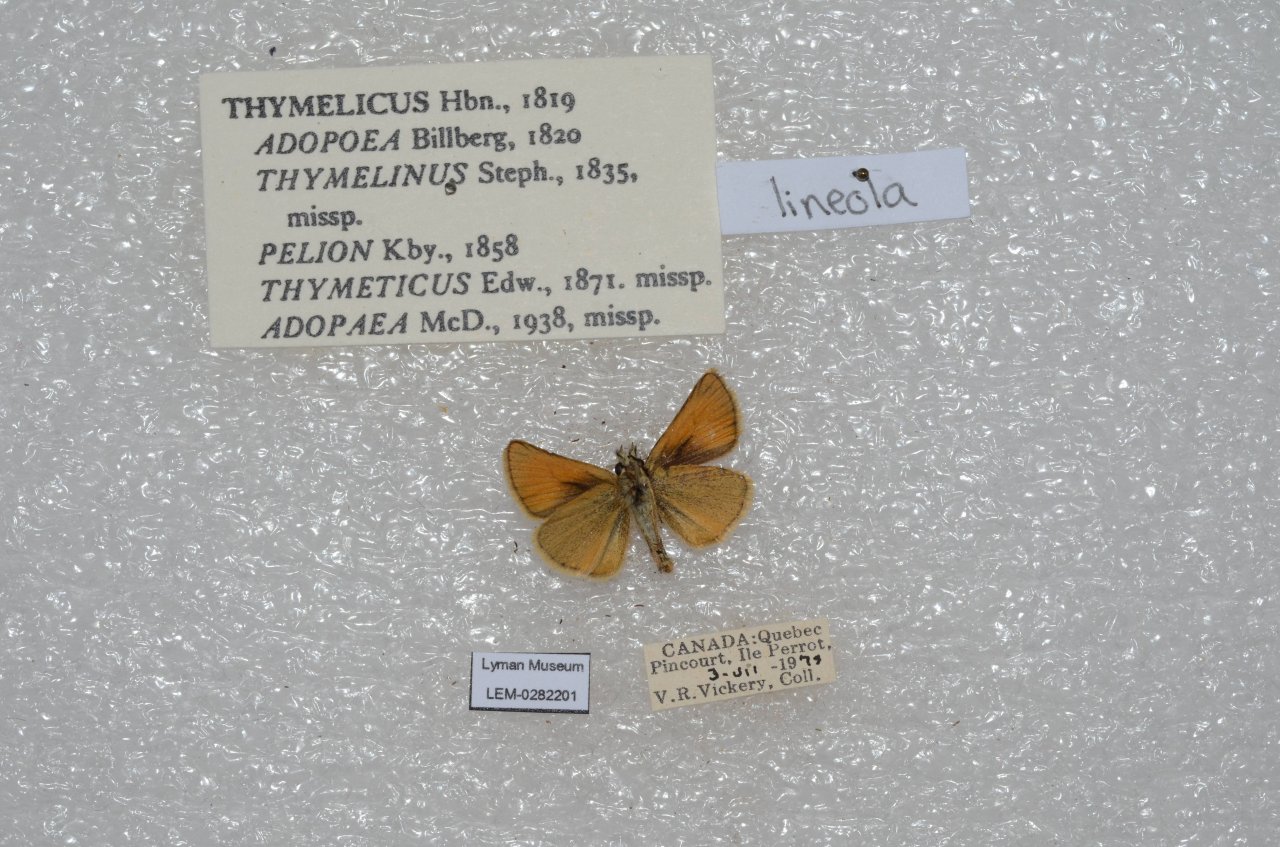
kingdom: Animalia
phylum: Arthropoda
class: Insecta
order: Lepidoptera
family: Hesperiidae
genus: Thymelicus
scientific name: Thymelicus lineola
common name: European Skipper
